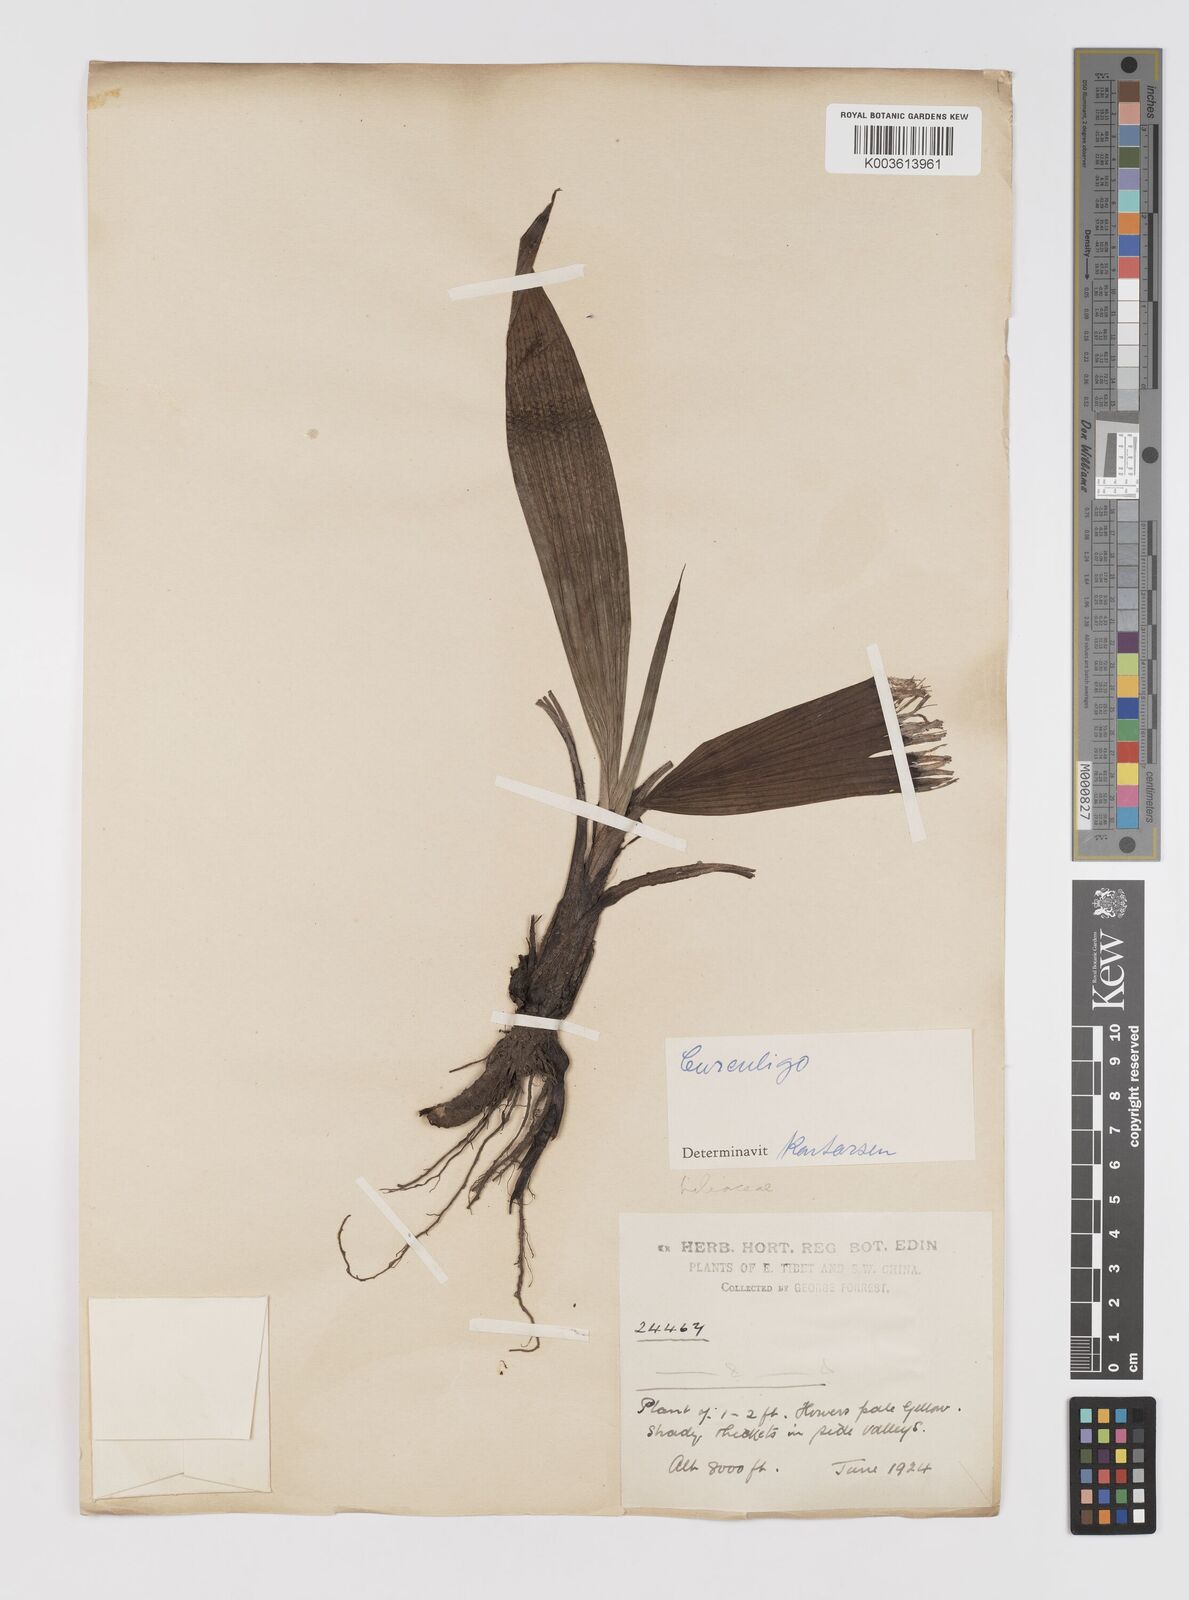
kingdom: Plantae
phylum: Tracheophyta
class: Liliopsida
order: Asparagales
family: Hypoxidaceae
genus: Curculigo
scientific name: Curculigo
